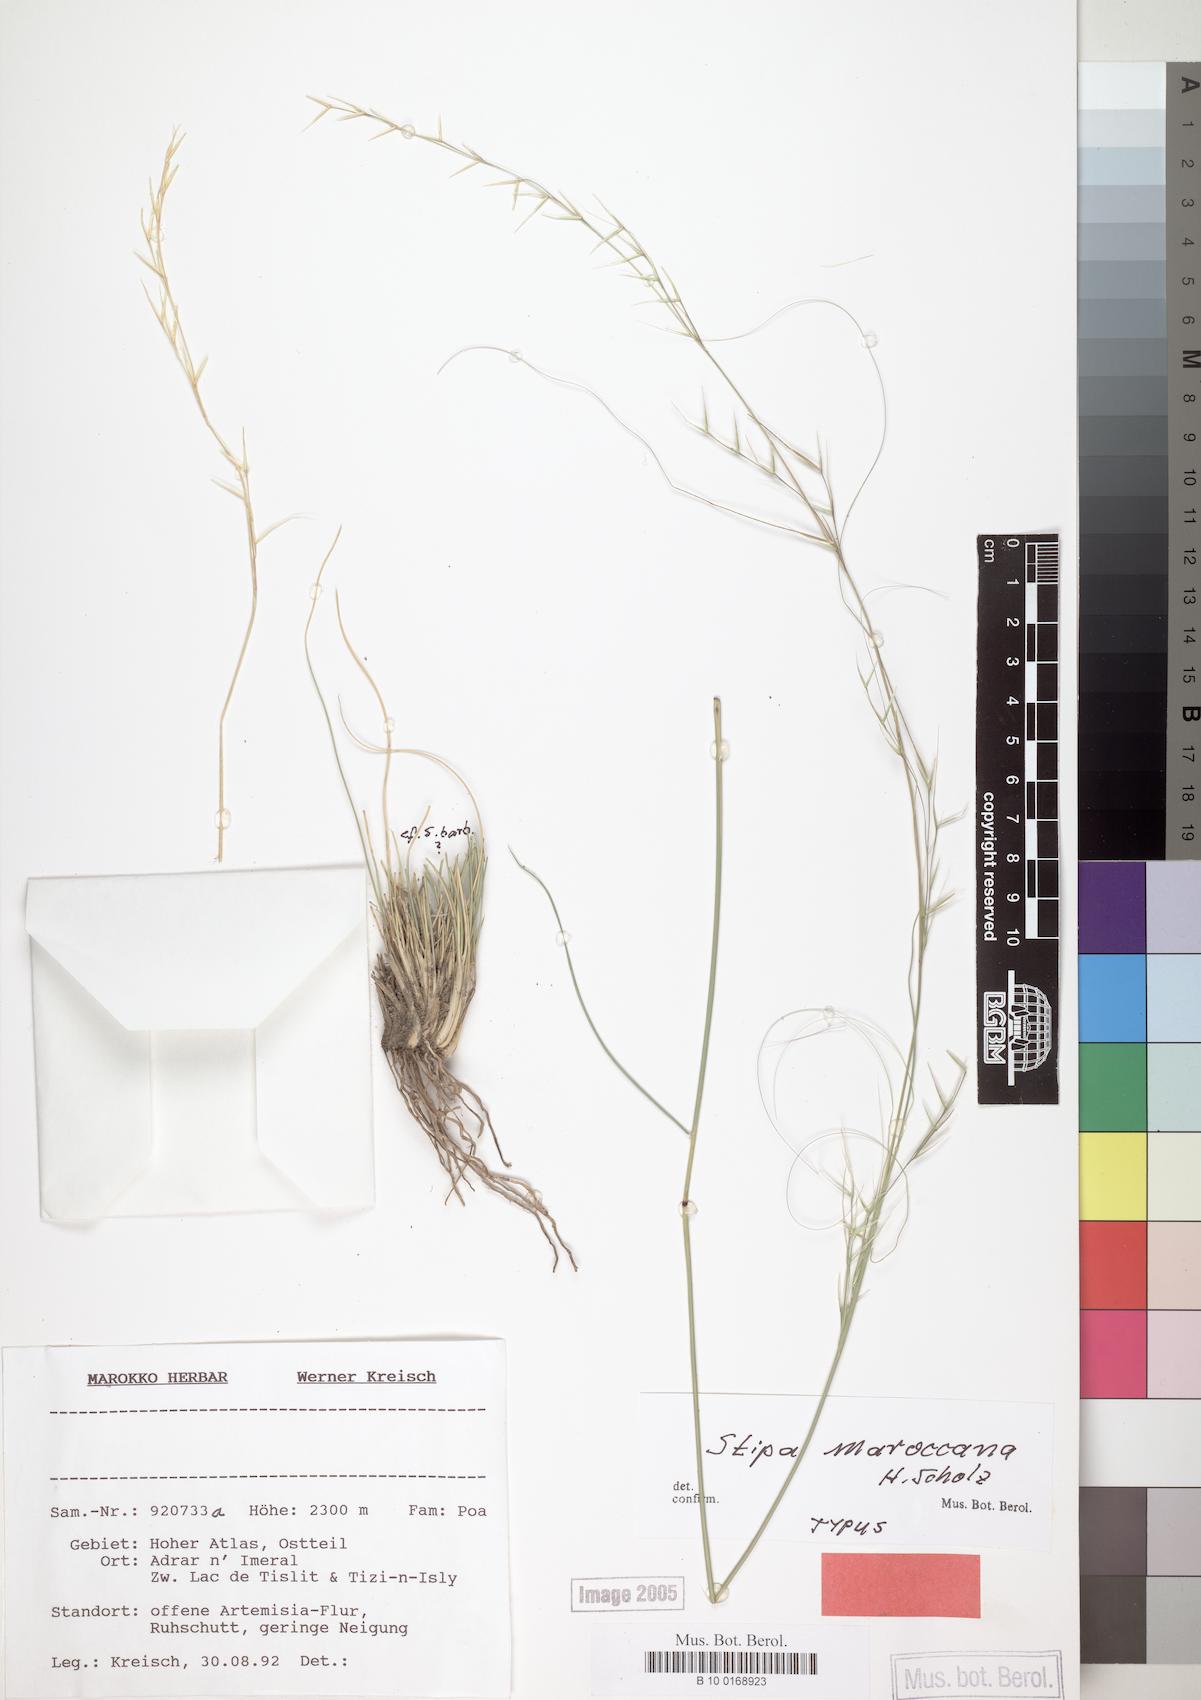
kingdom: Plantae
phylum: Tracheophyta
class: Liliopsida
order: Poales
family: Poaceae
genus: Stipa
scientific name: Stipa lagascae
